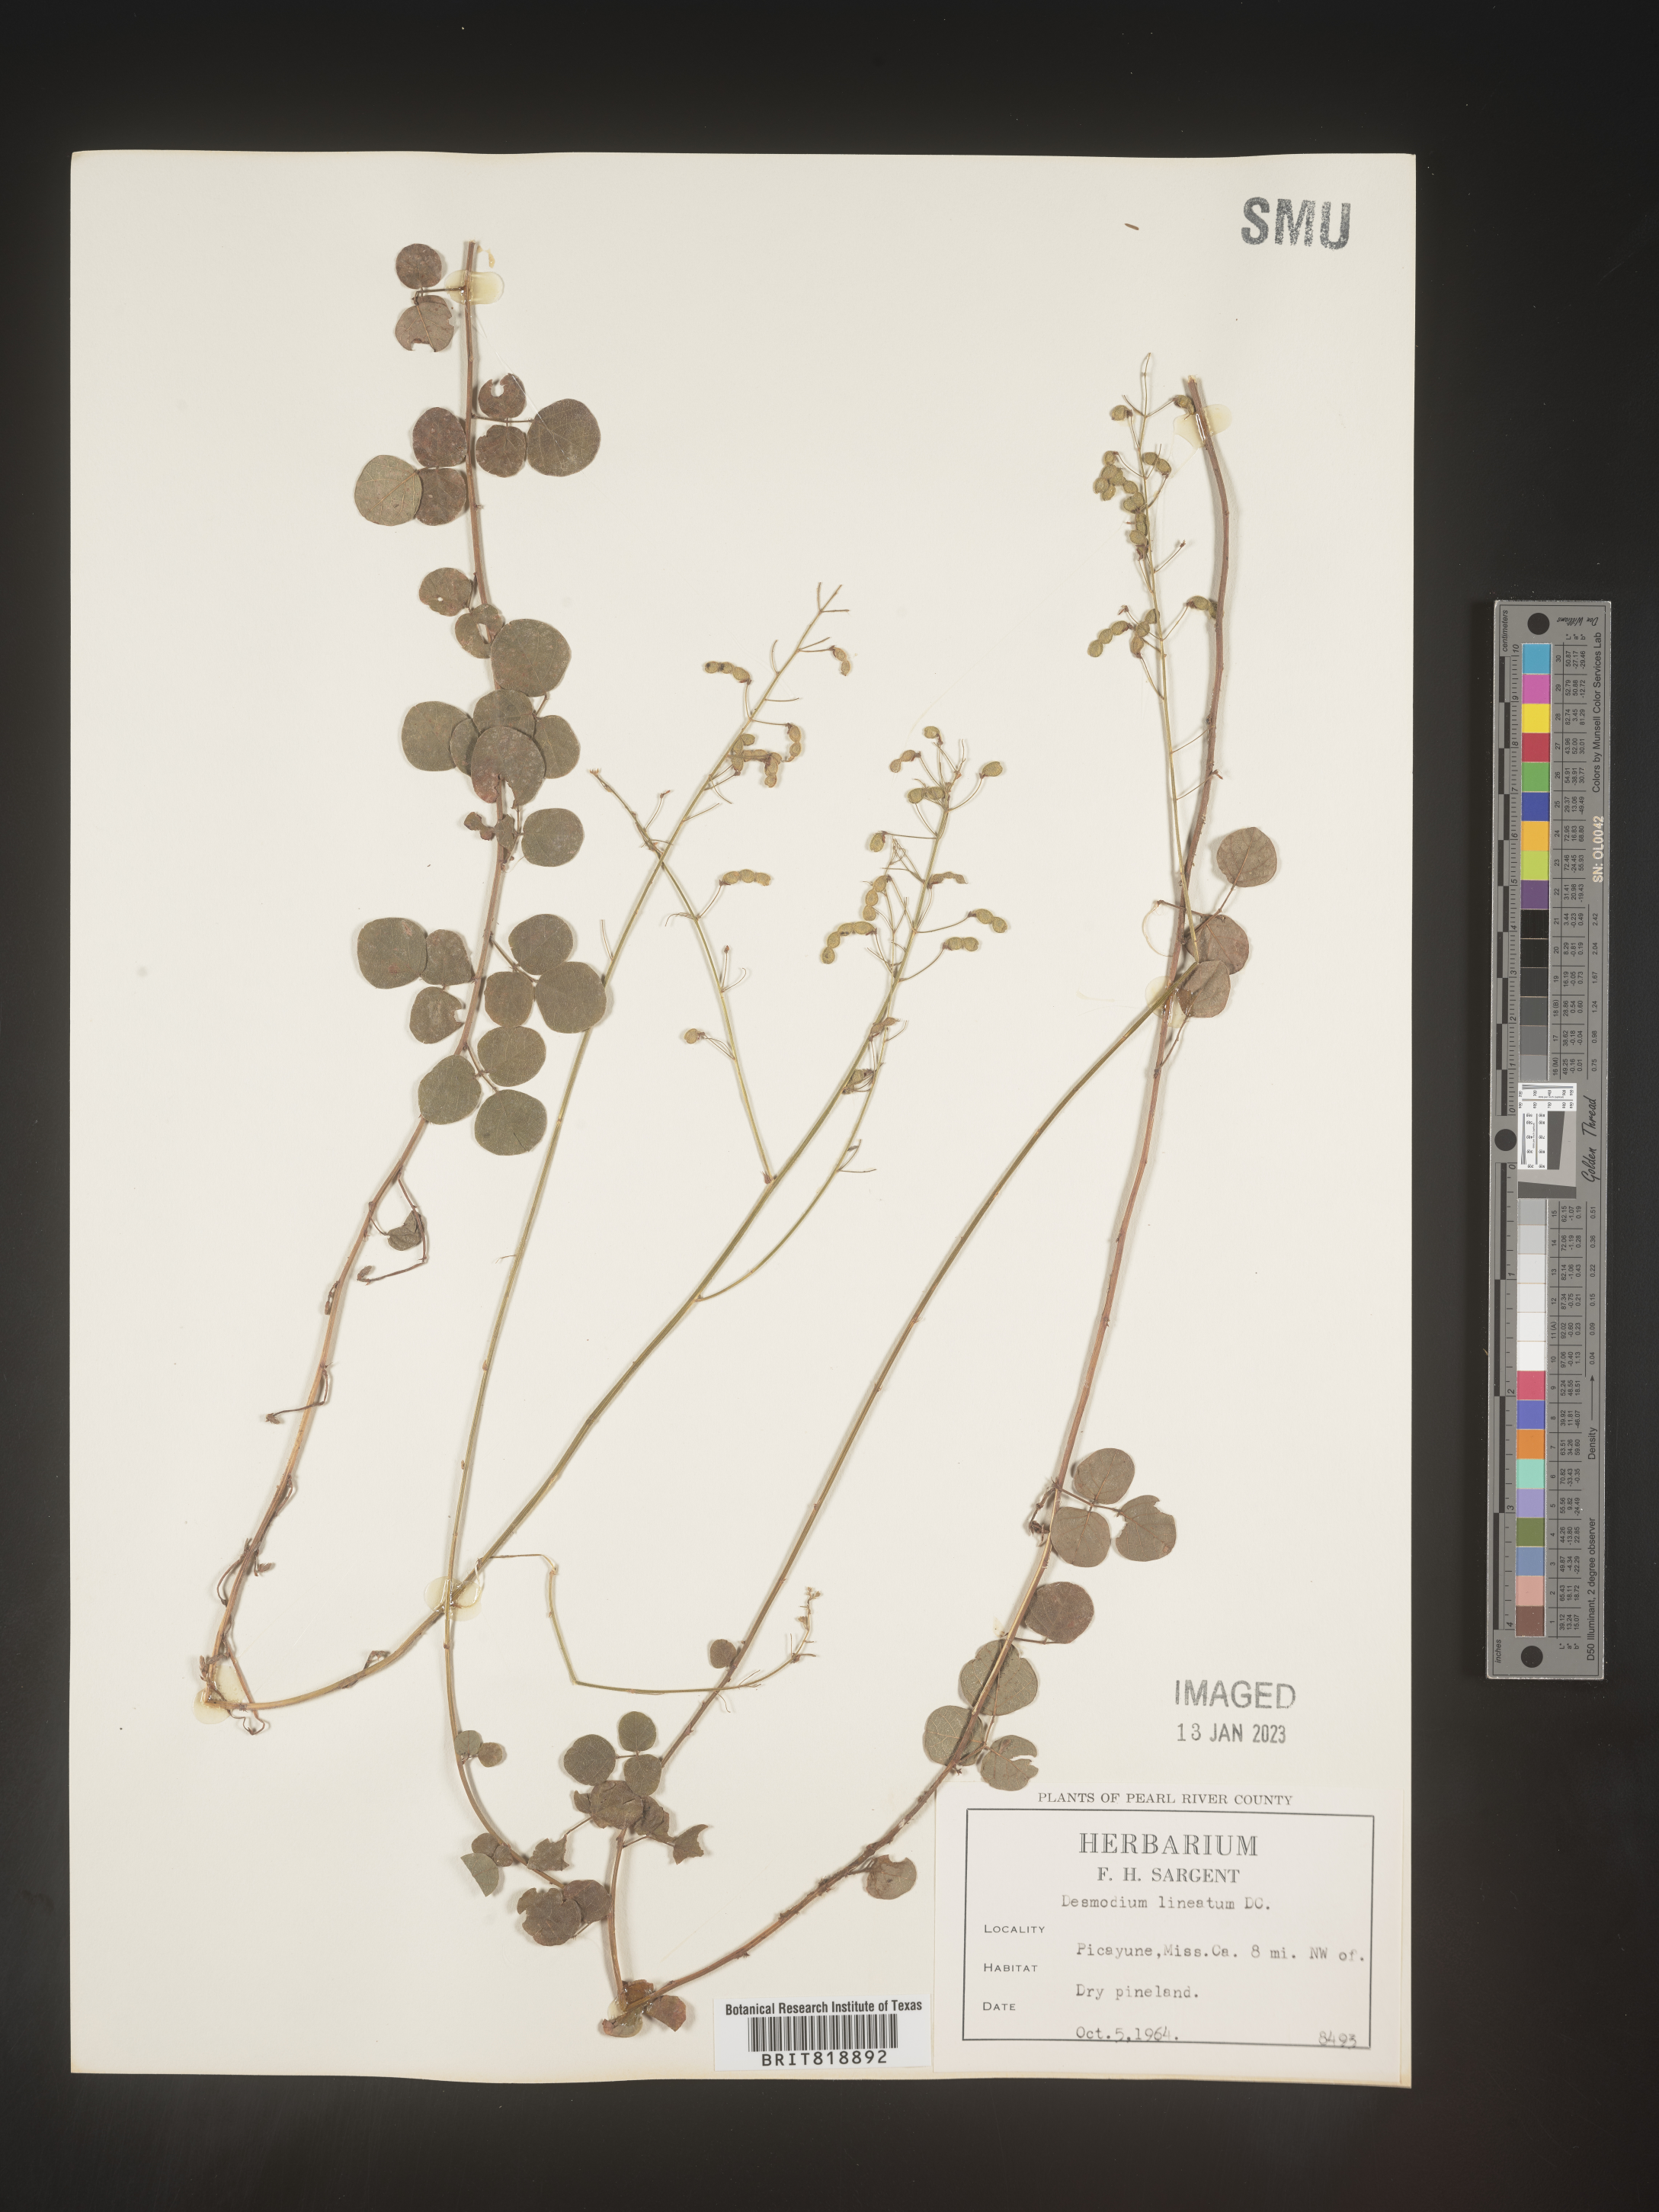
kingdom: Plantae
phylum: Tracheophyta
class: Magnoliopsida
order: Fabales
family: Fabaceae
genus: Desmodium
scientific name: Desmodium
